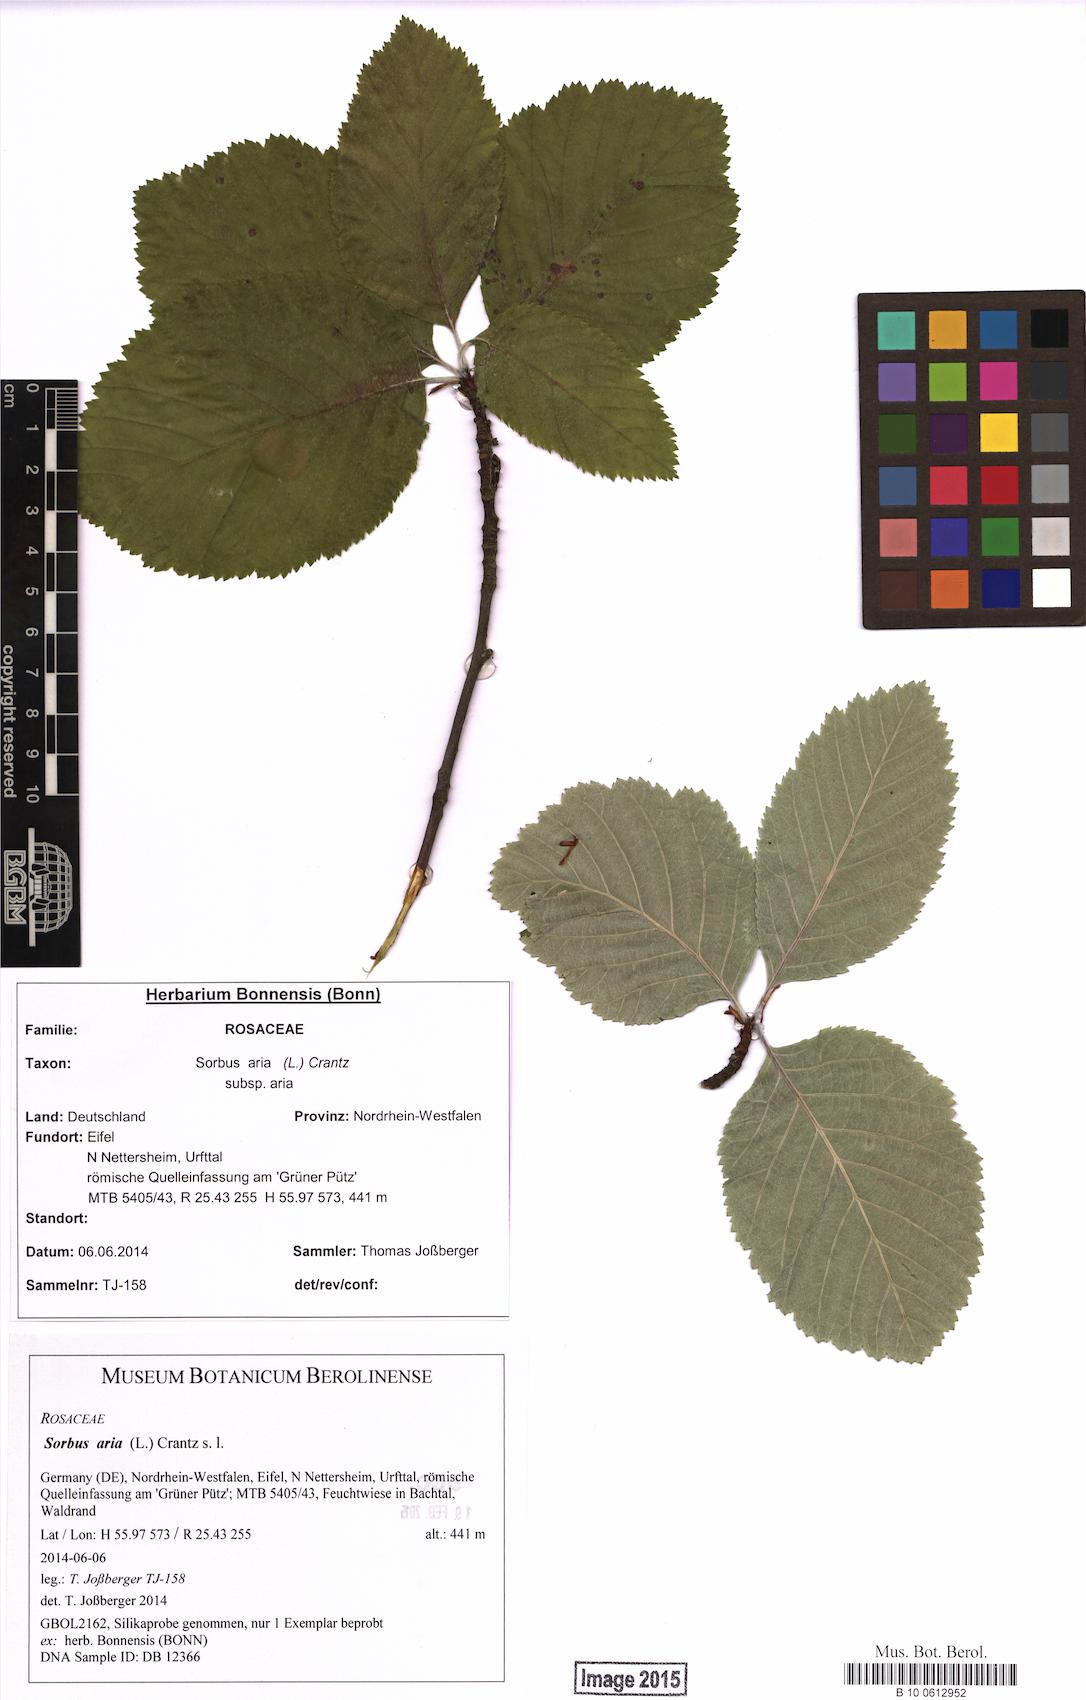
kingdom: Plantae
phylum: Tracheophyta
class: Magnoliopsida
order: Rosales
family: Rosaceae
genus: Aria
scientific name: Aria edulis
